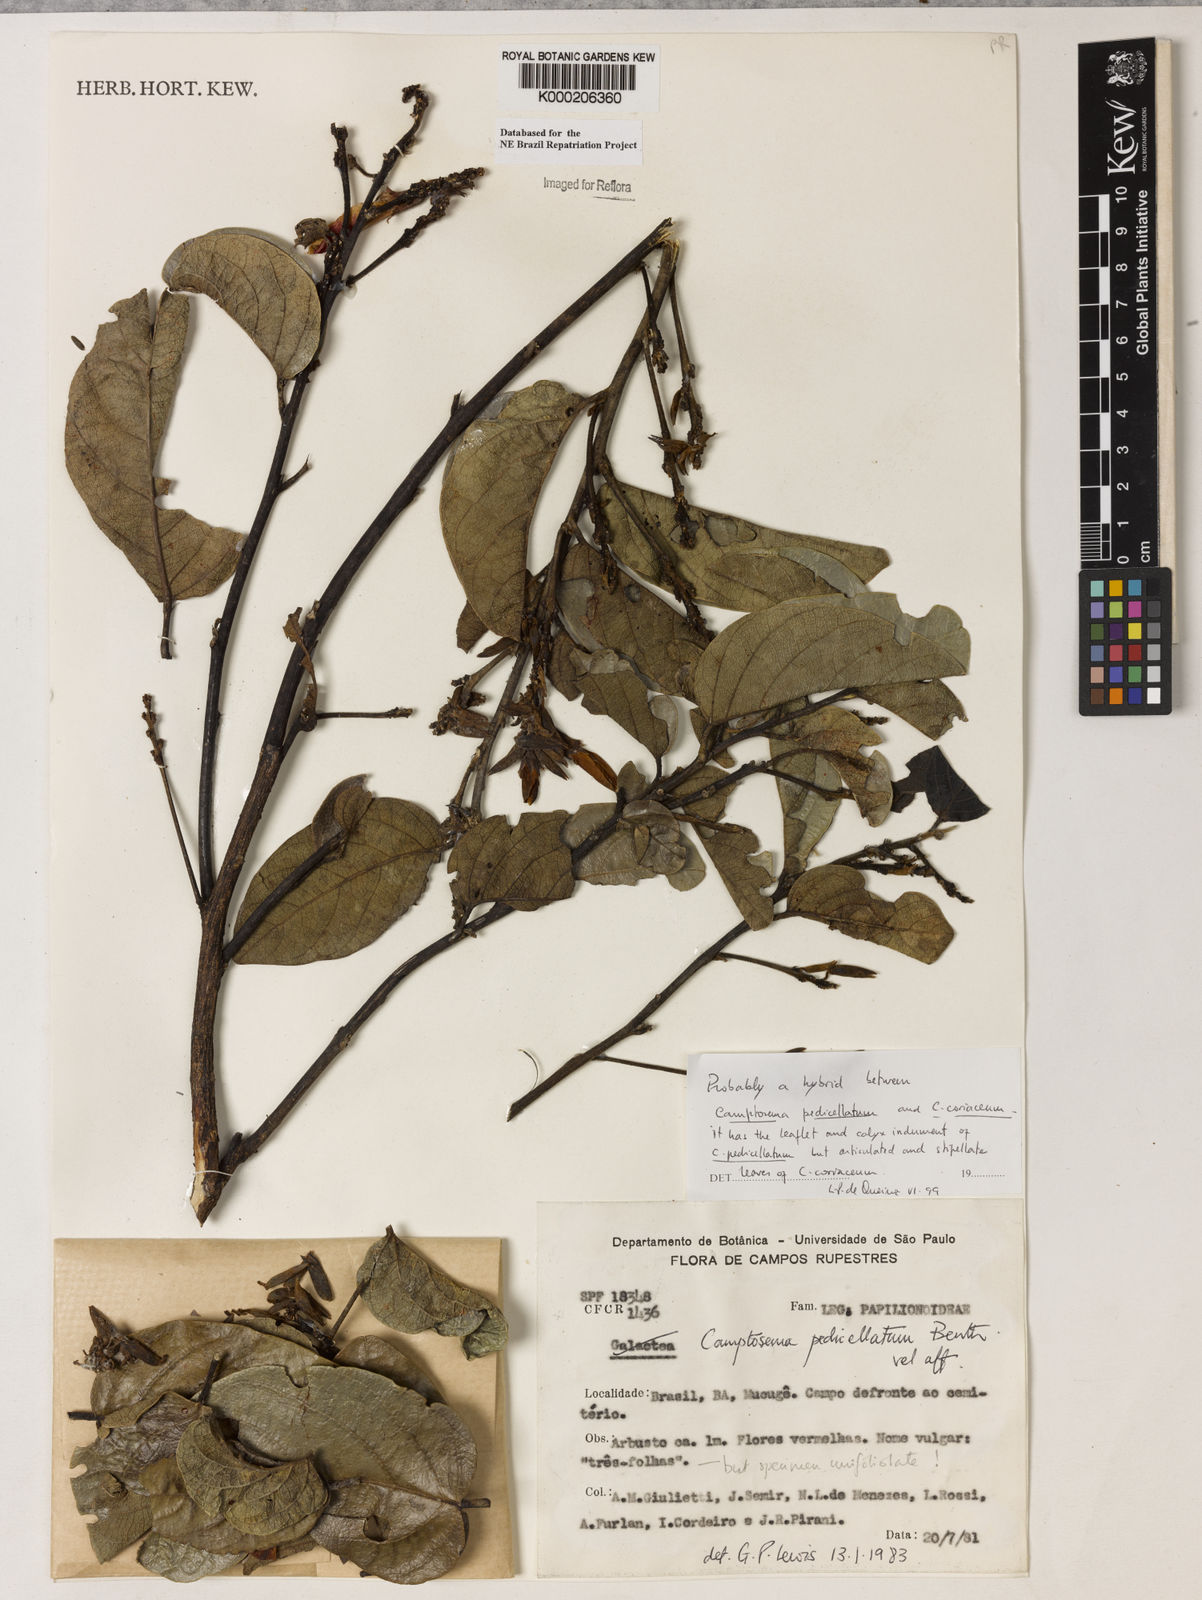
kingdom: Plantae
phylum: Tracheophyta
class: Magnoliopsida
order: Fabales
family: Fabaceae
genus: Camptosema
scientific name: Camptosema pedicellatum
